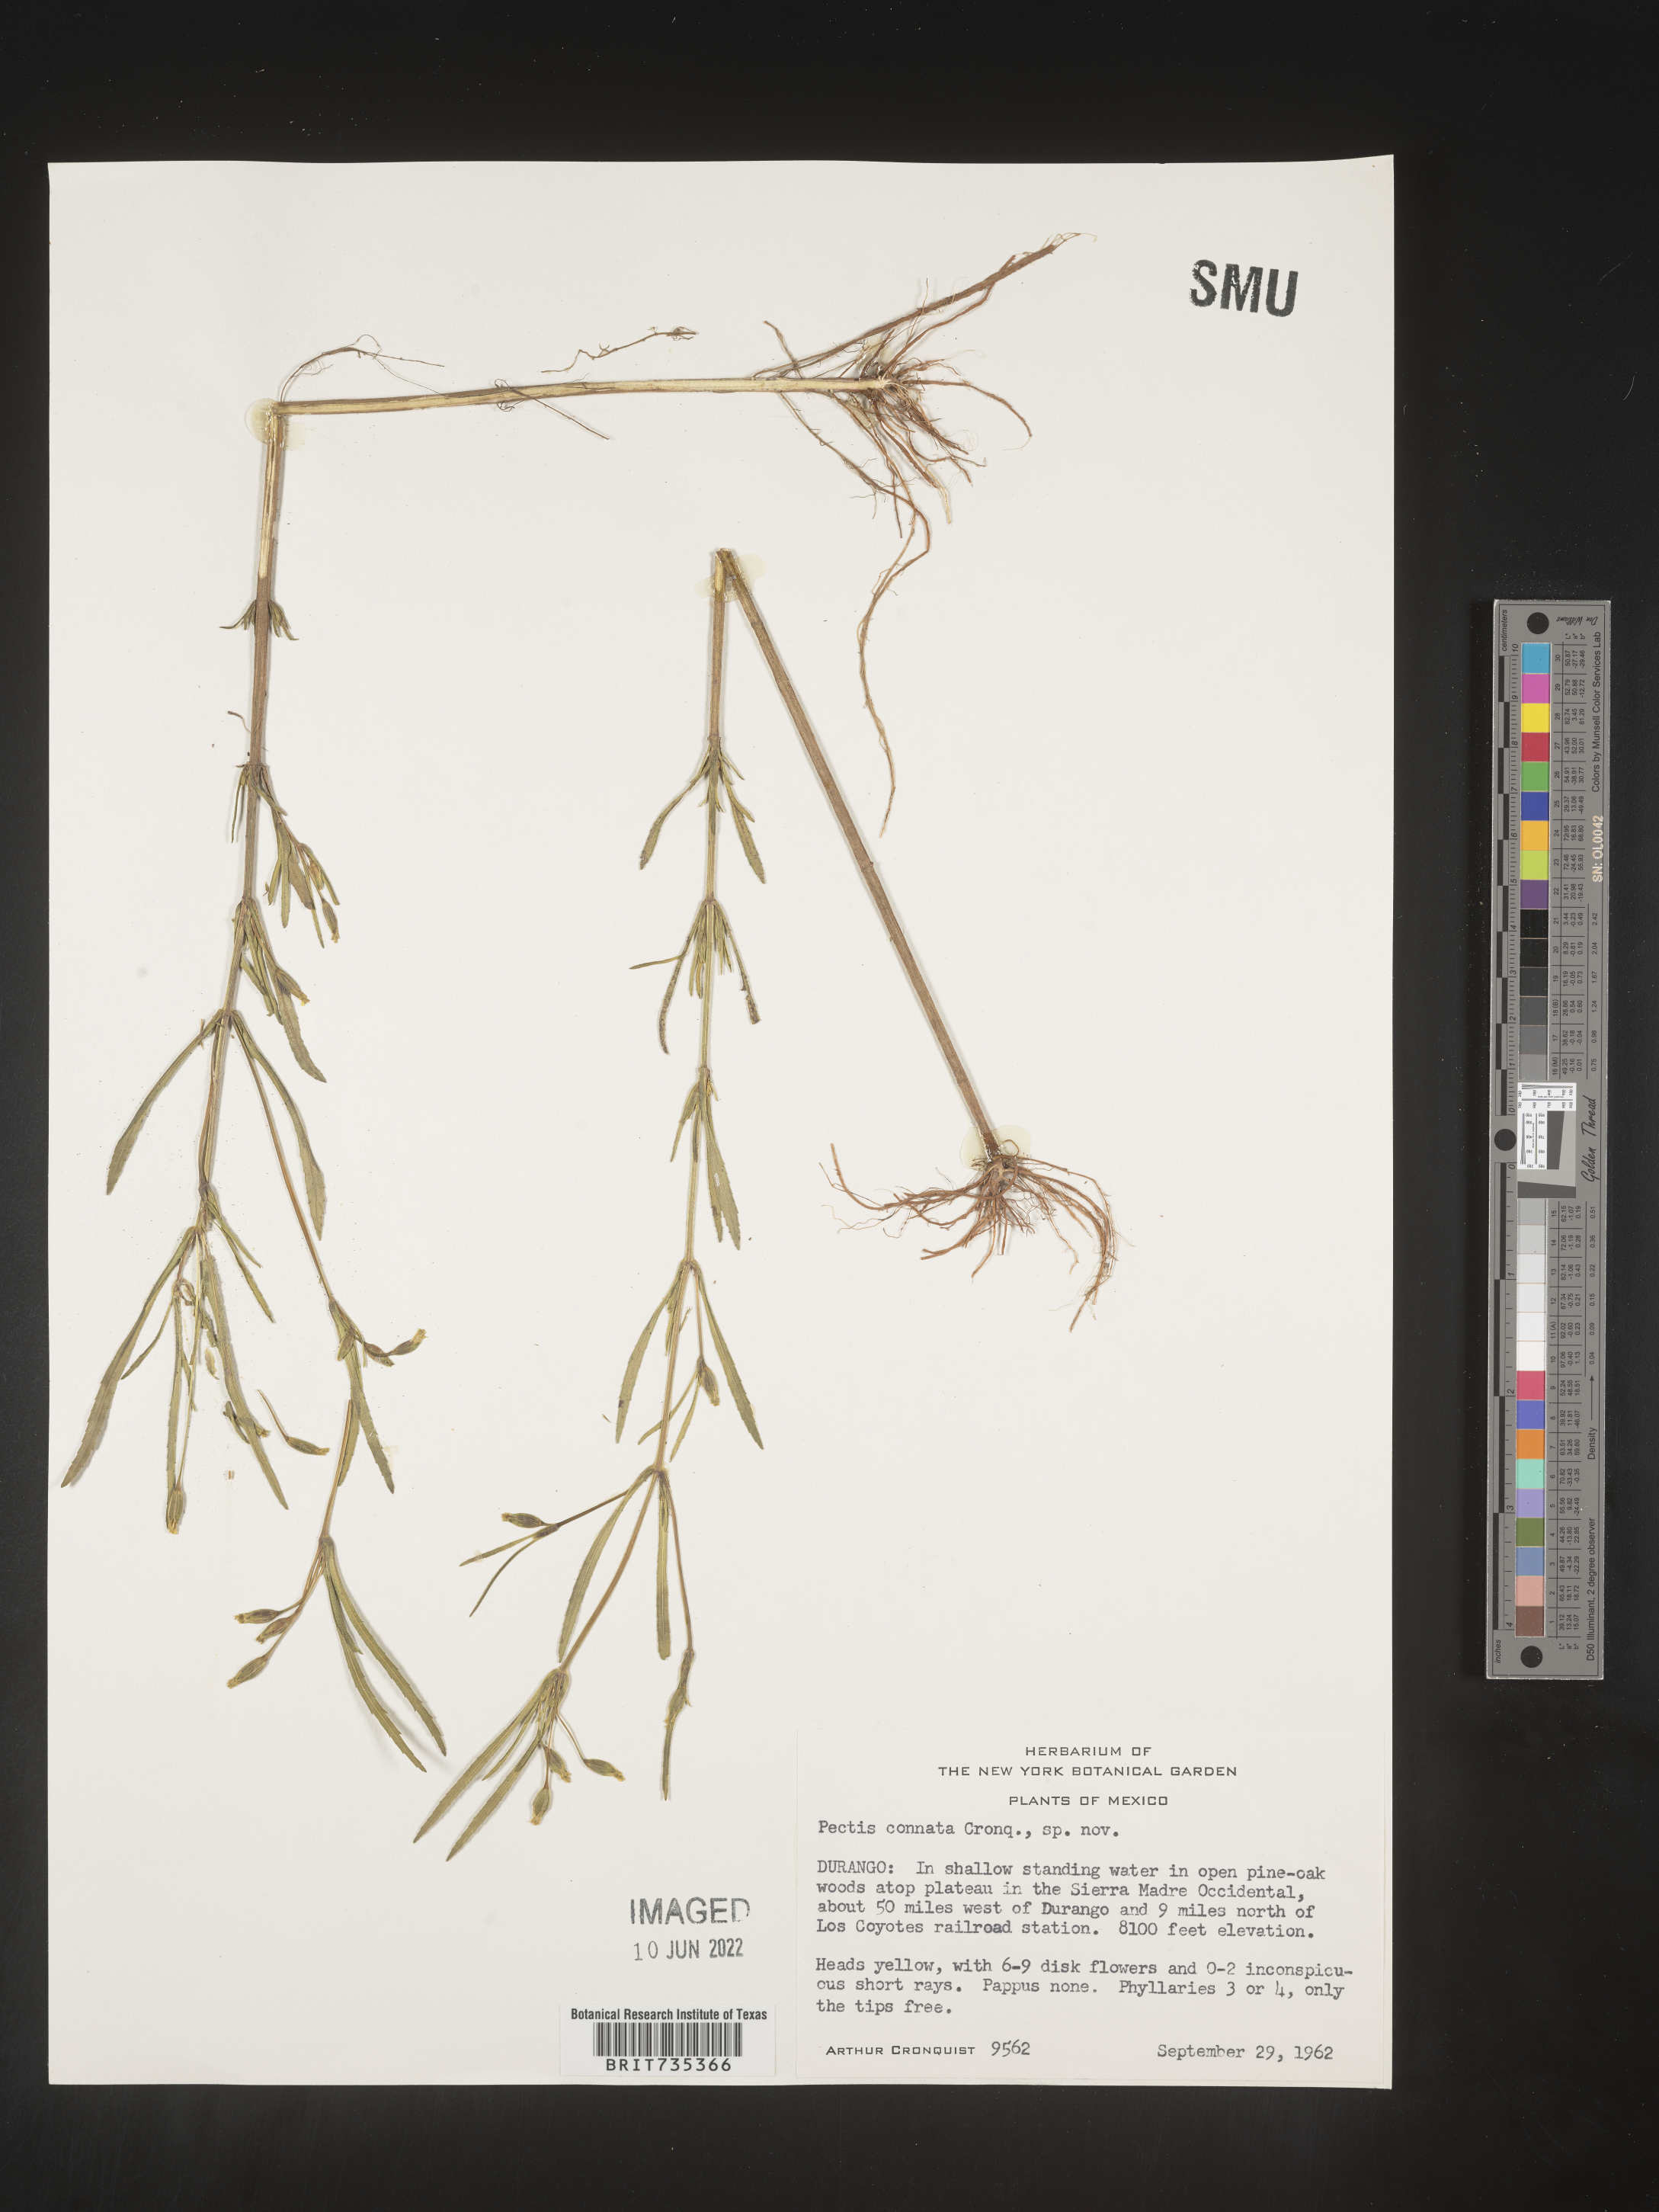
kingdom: Plantae
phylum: Tracheophyta
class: Magnoliopsida
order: Asterales
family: Asteraceae
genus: Pectis
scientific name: Pectis
